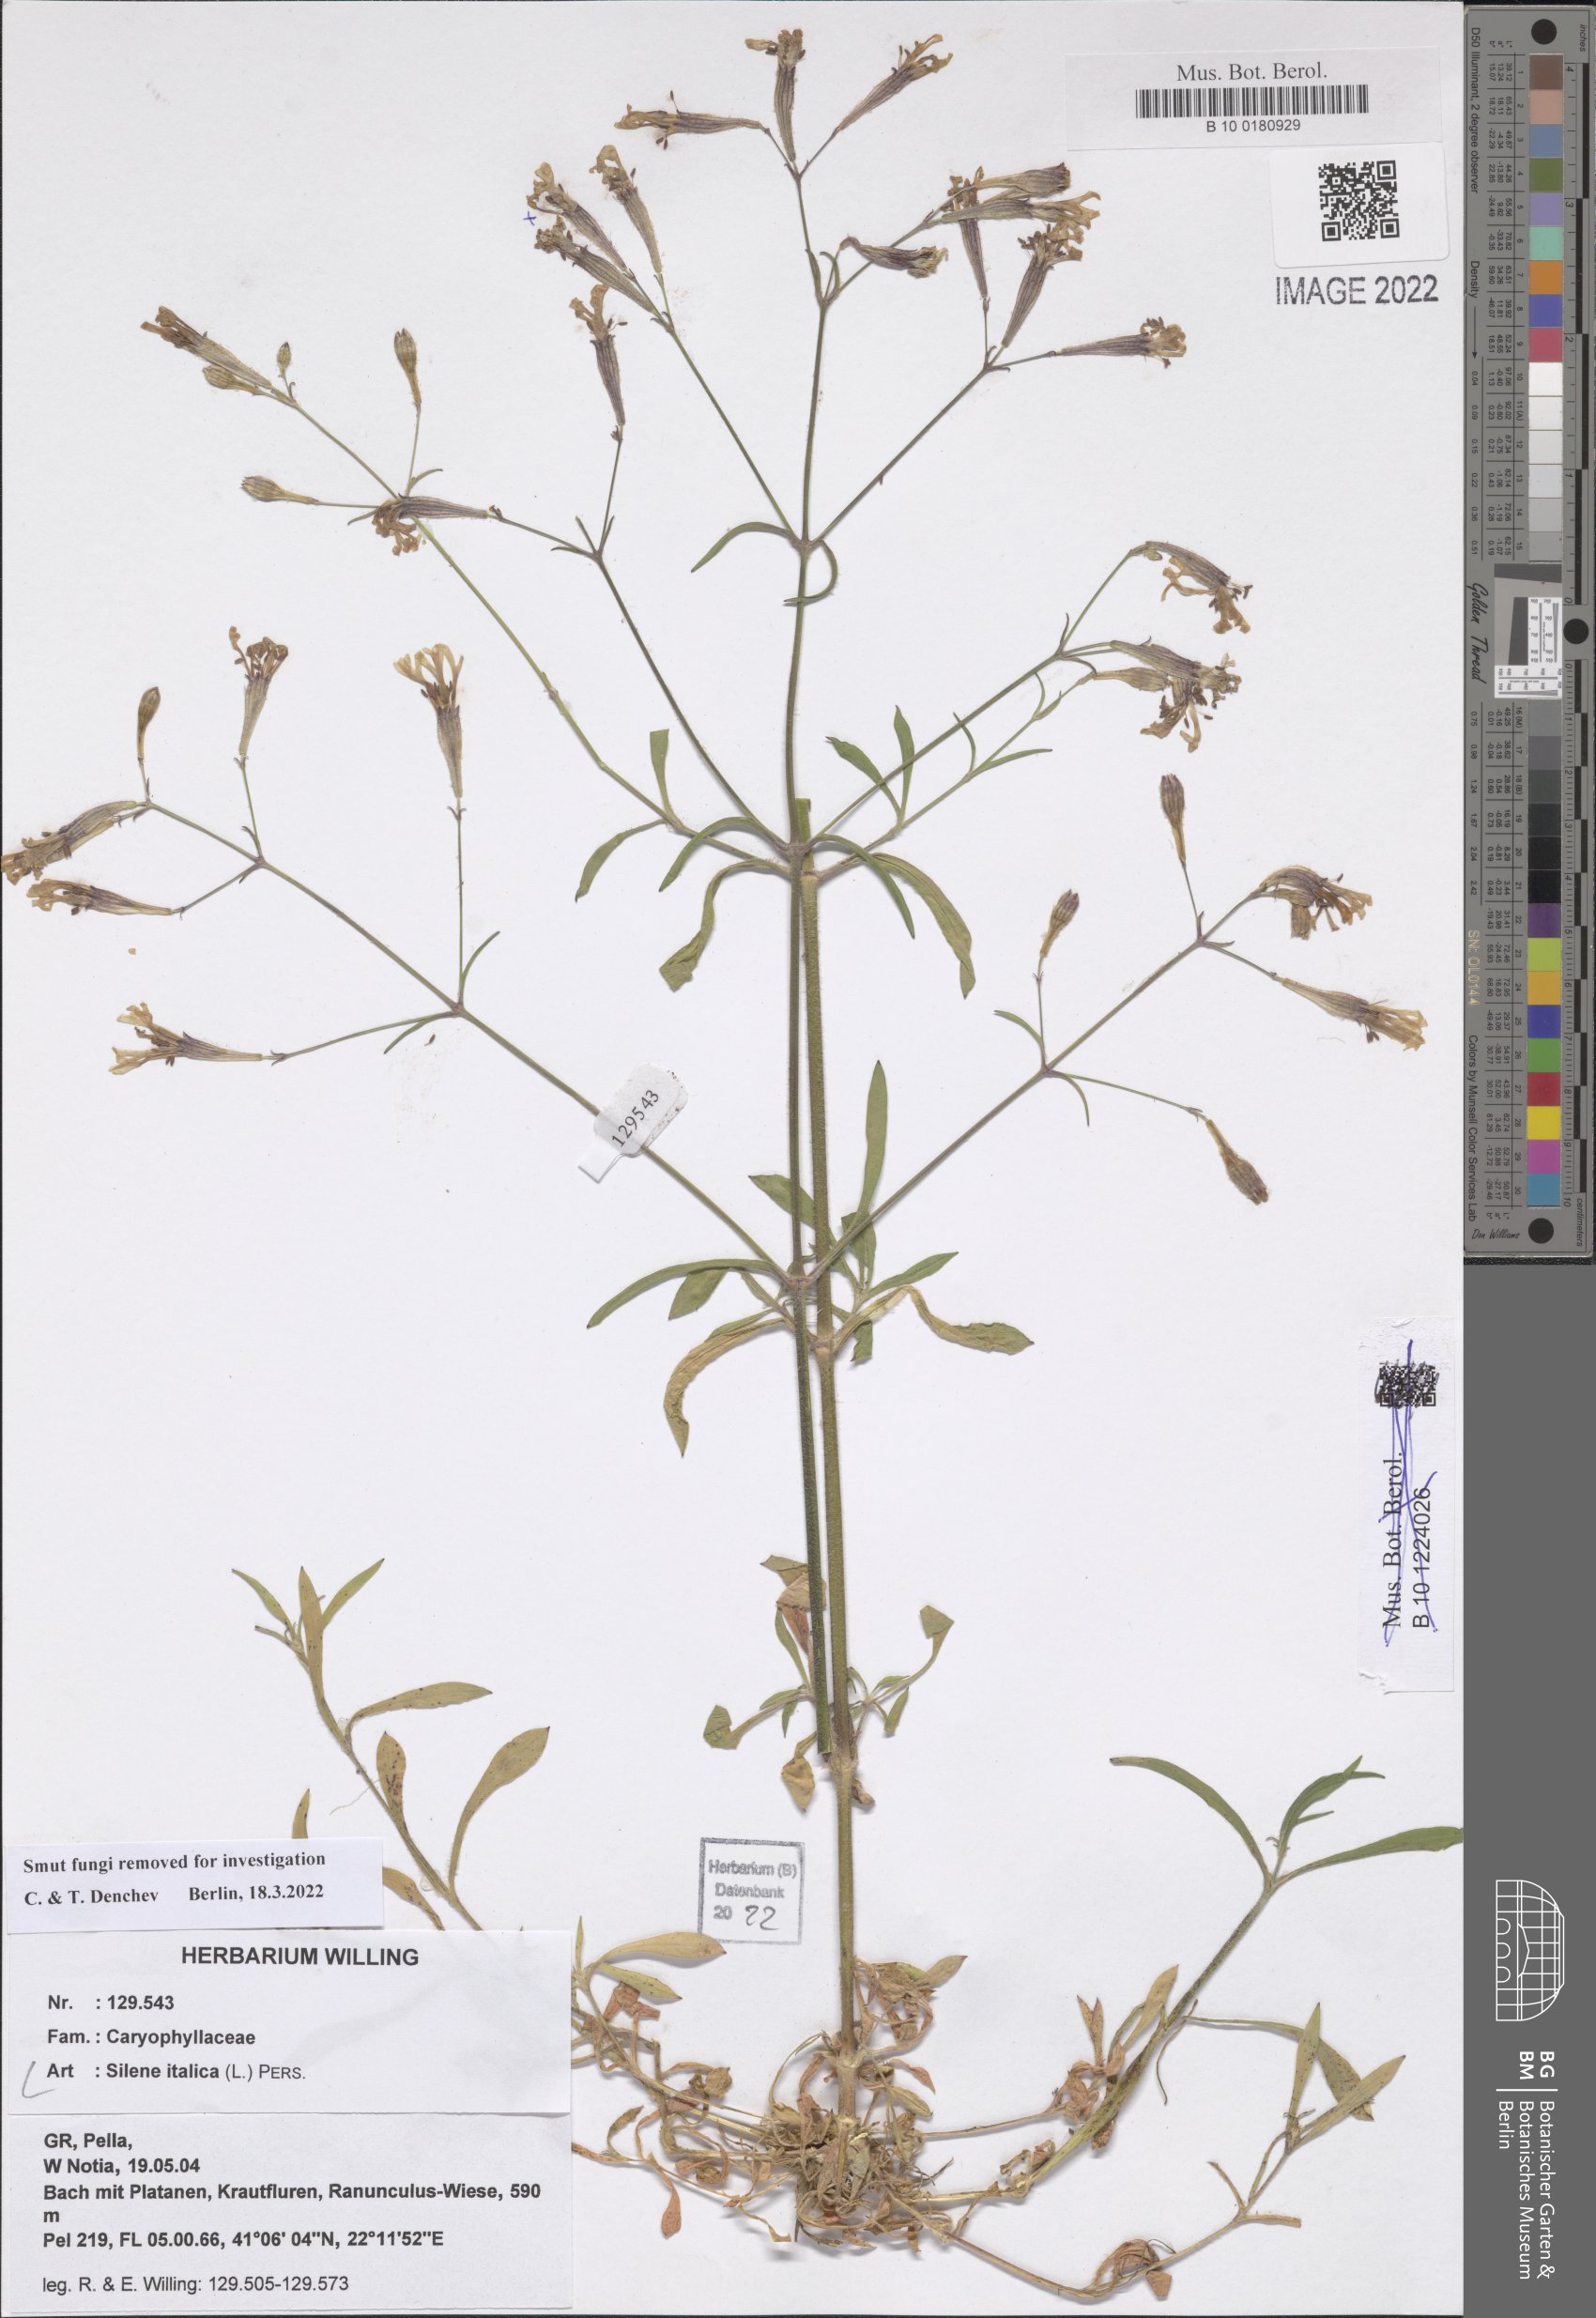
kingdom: Plantae
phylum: Tracheophyta
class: Magnoliopsida
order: Caryophyllales
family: Caryophyllaceae
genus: Silene
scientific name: Silene italica
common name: Italian catchfly
